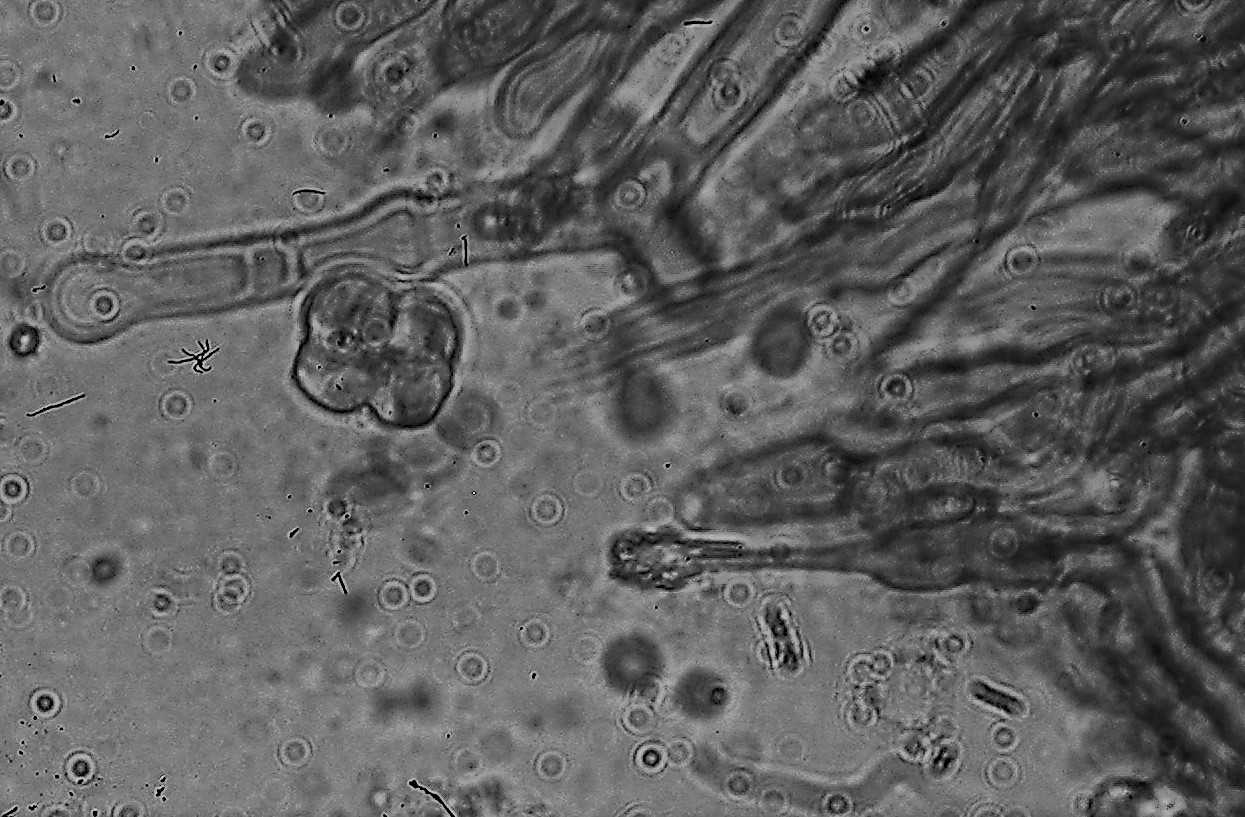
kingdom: Fungi
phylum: Basidiomycota
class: Agaricomycetes
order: Hymenochaetales
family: Hyphodontiaceae
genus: Hyphodontia
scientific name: Hyphodontia alutaria
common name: flaskerenser-nålehinde
